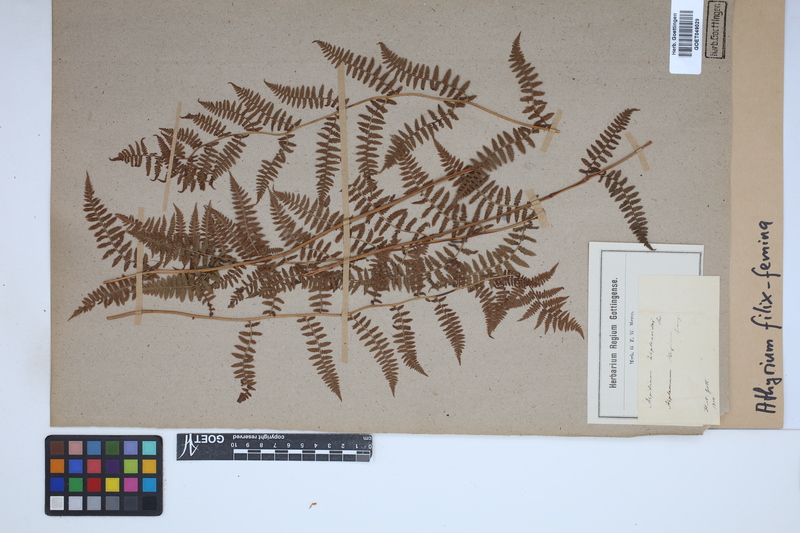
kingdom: Plantae
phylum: Tracheophyta
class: Polypodiopsida
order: Polypodiales
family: Athyriaceae
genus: Athyrium
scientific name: Athyrium filix-femina
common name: Lady fern
